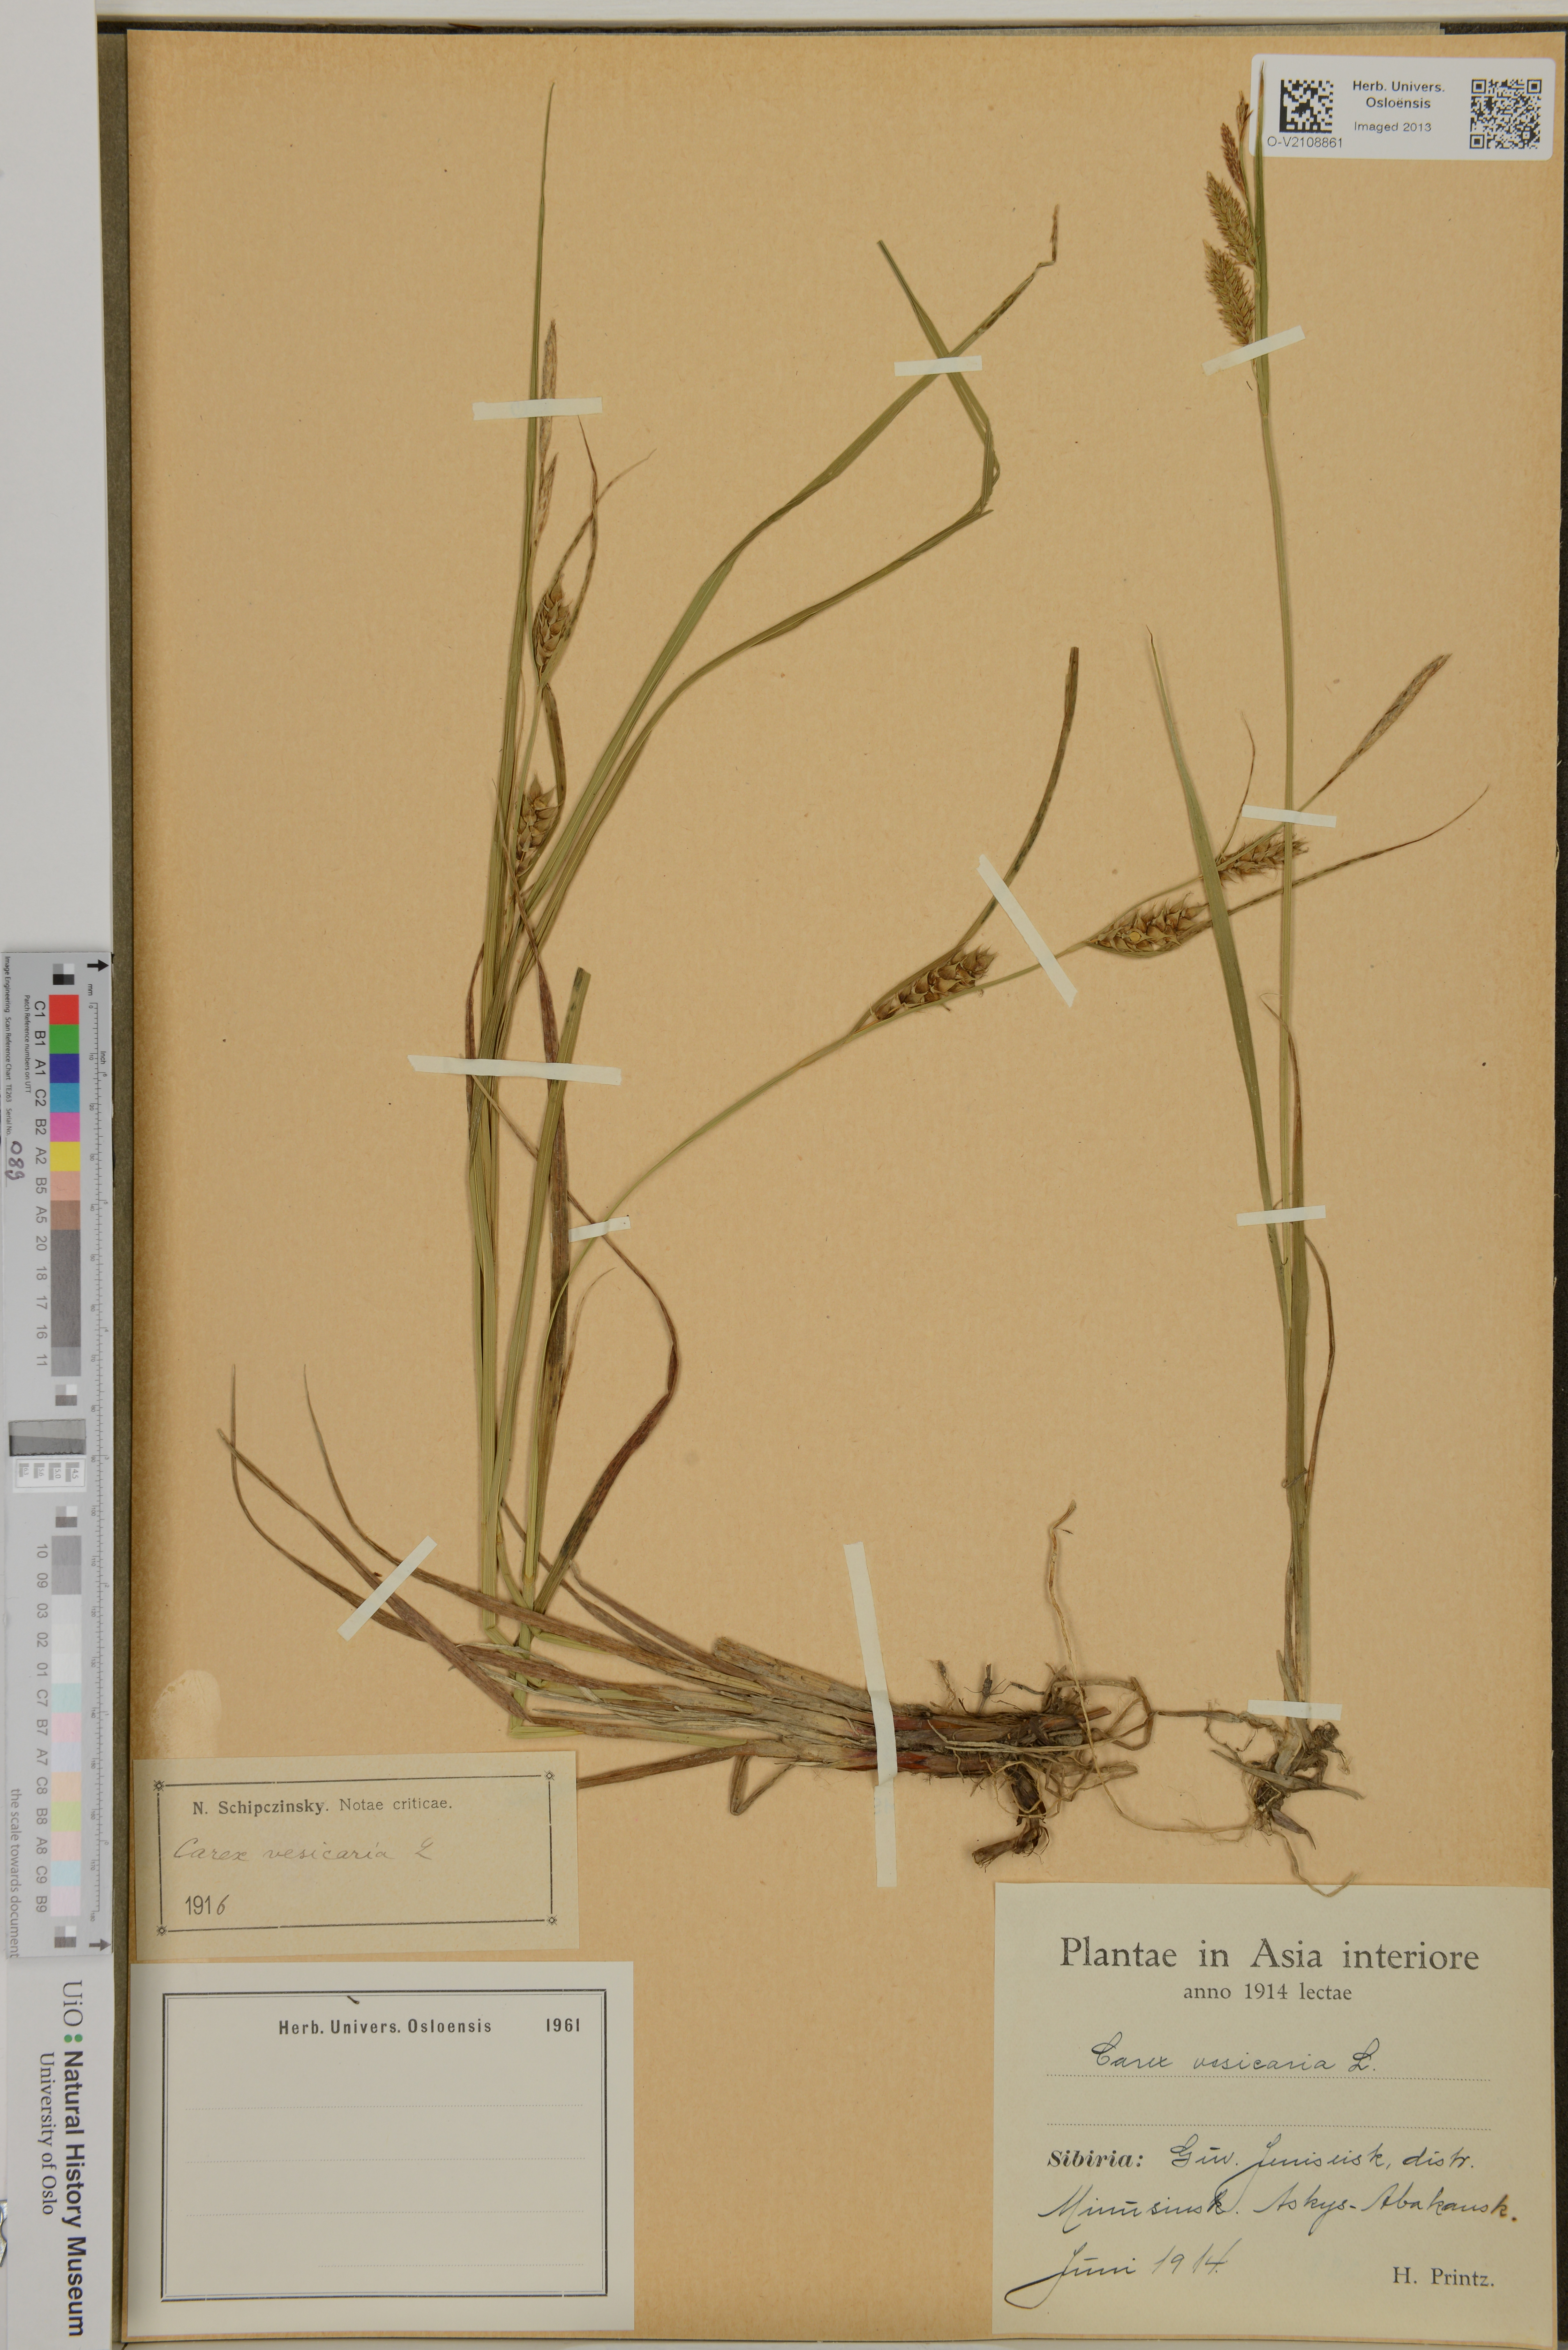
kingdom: Plantae
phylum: Tracheophyta
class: Liliopsida
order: Poales
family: Cyperaceae
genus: Carex
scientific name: Carex vesicaria
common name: Bladder-sedge
